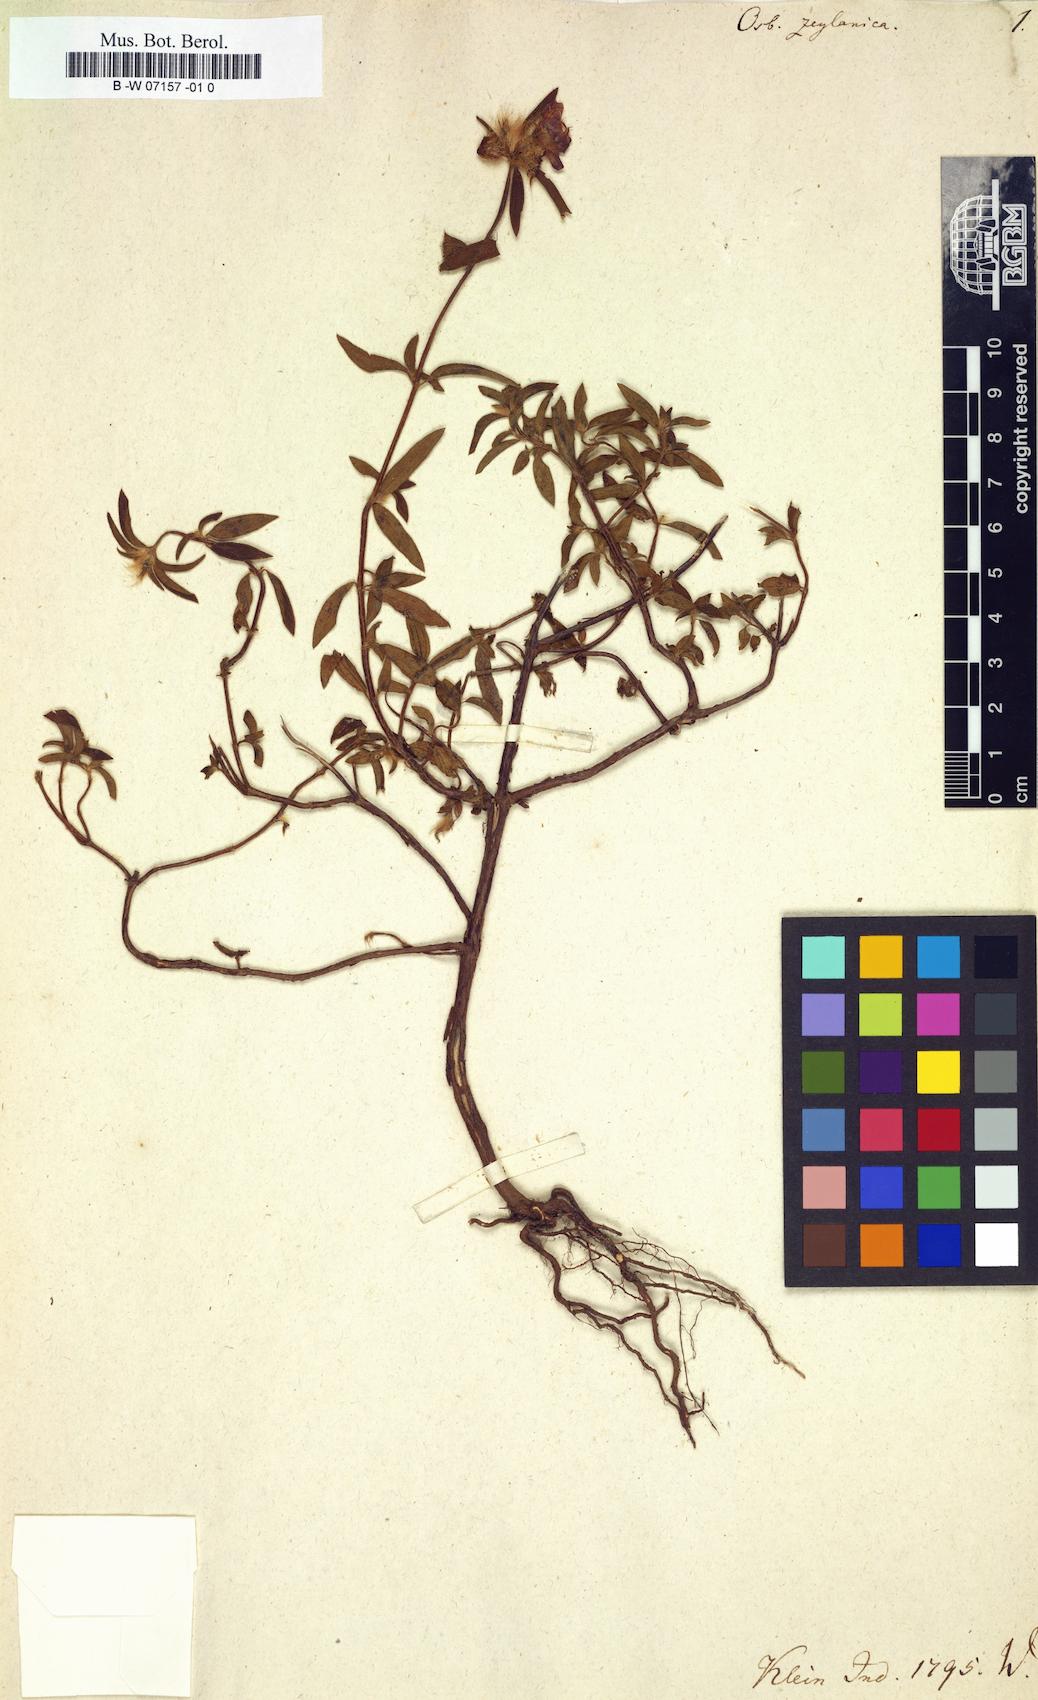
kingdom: Plantae
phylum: Tracheophyta
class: Magnoliopsida
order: Myrtales
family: Melastomataceae
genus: Osbeckia
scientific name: Osbeckia zeylanica
